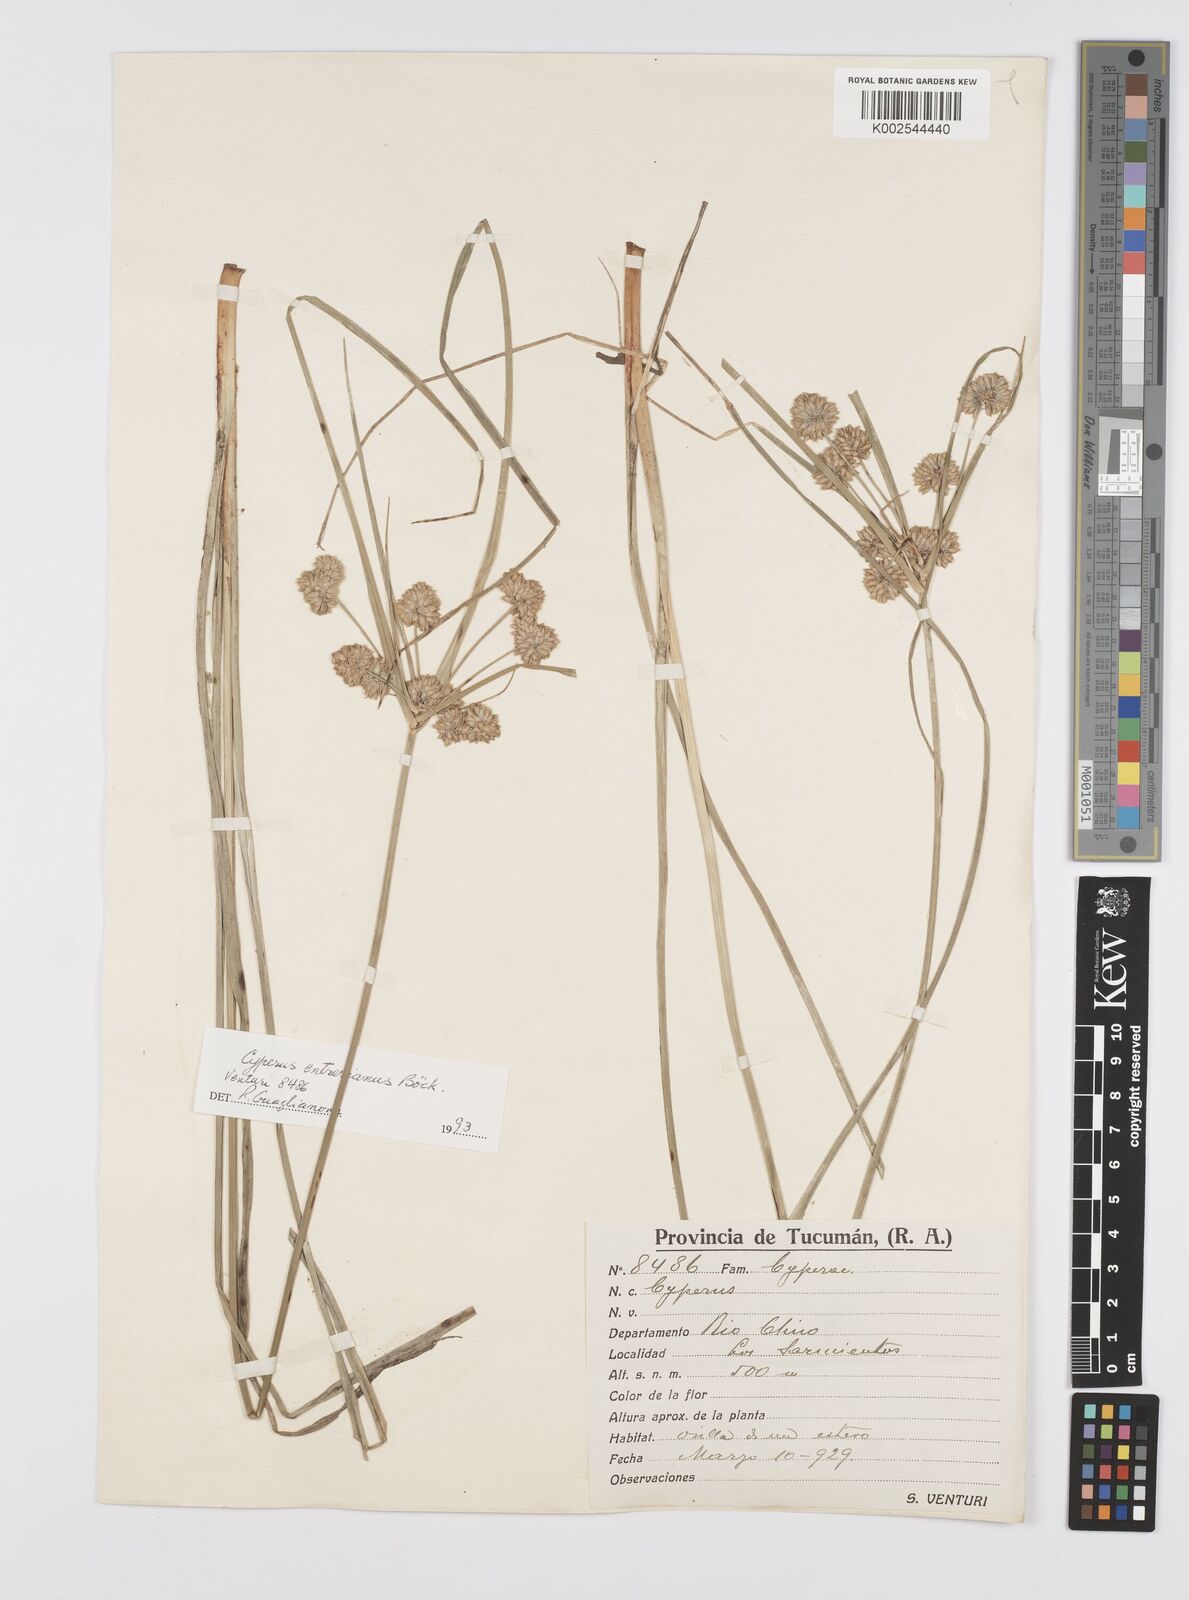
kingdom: Plantae
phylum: Tracheophyta
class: Liliopsida
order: Poales
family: Cyperaceae
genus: Cyperus
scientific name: Cyperus
